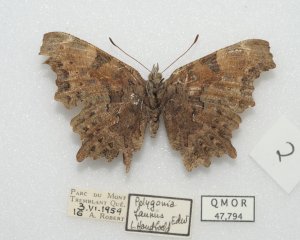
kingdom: Animalia
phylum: Arthropoda
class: Insecta
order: Lepidoptera
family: Nymphalidae
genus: Polygonia
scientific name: Polygonia faunus
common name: Green Comma
